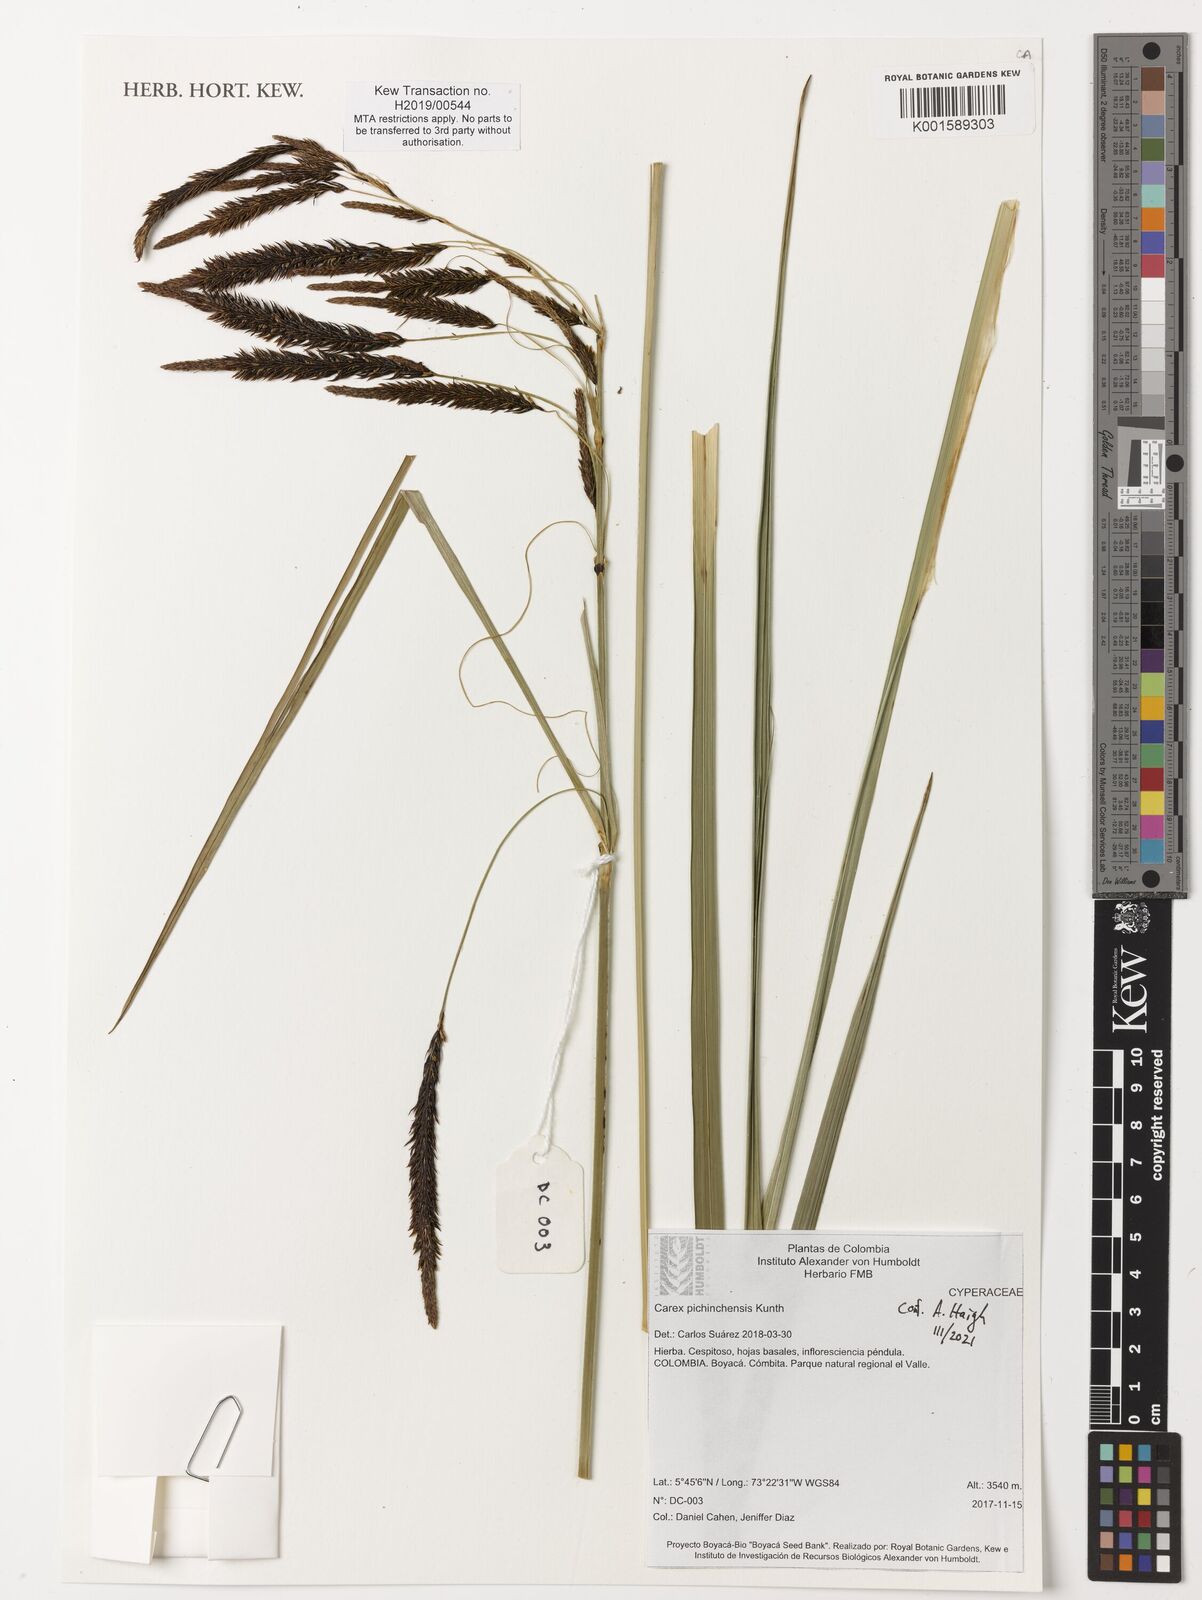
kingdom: Plantae
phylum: Tracheophyta
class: Liliopsida
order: Poales
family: Cyperaceae
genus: Carex
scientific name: Carex pichinchensis
